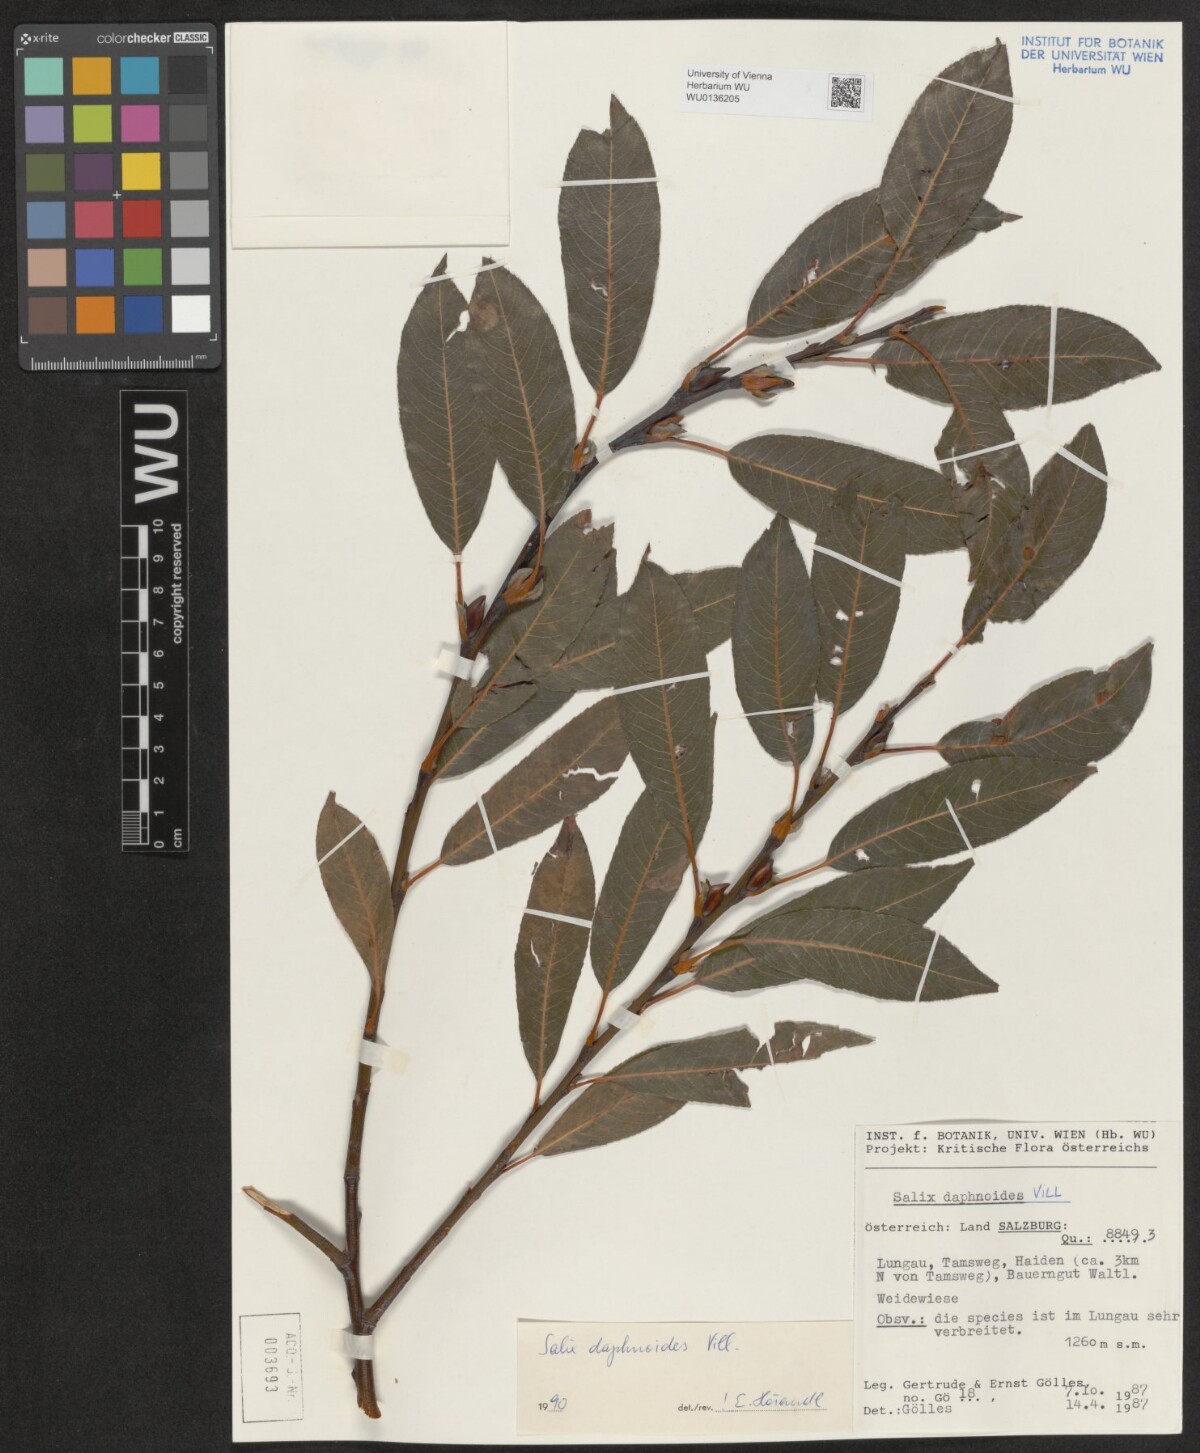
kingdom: Plantae
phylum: Tracheophyta
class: Magnoliopsida
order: Malpighiales
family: Salicaceae
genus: Salix
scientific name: Salix daphnoides
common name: European violet-willow
